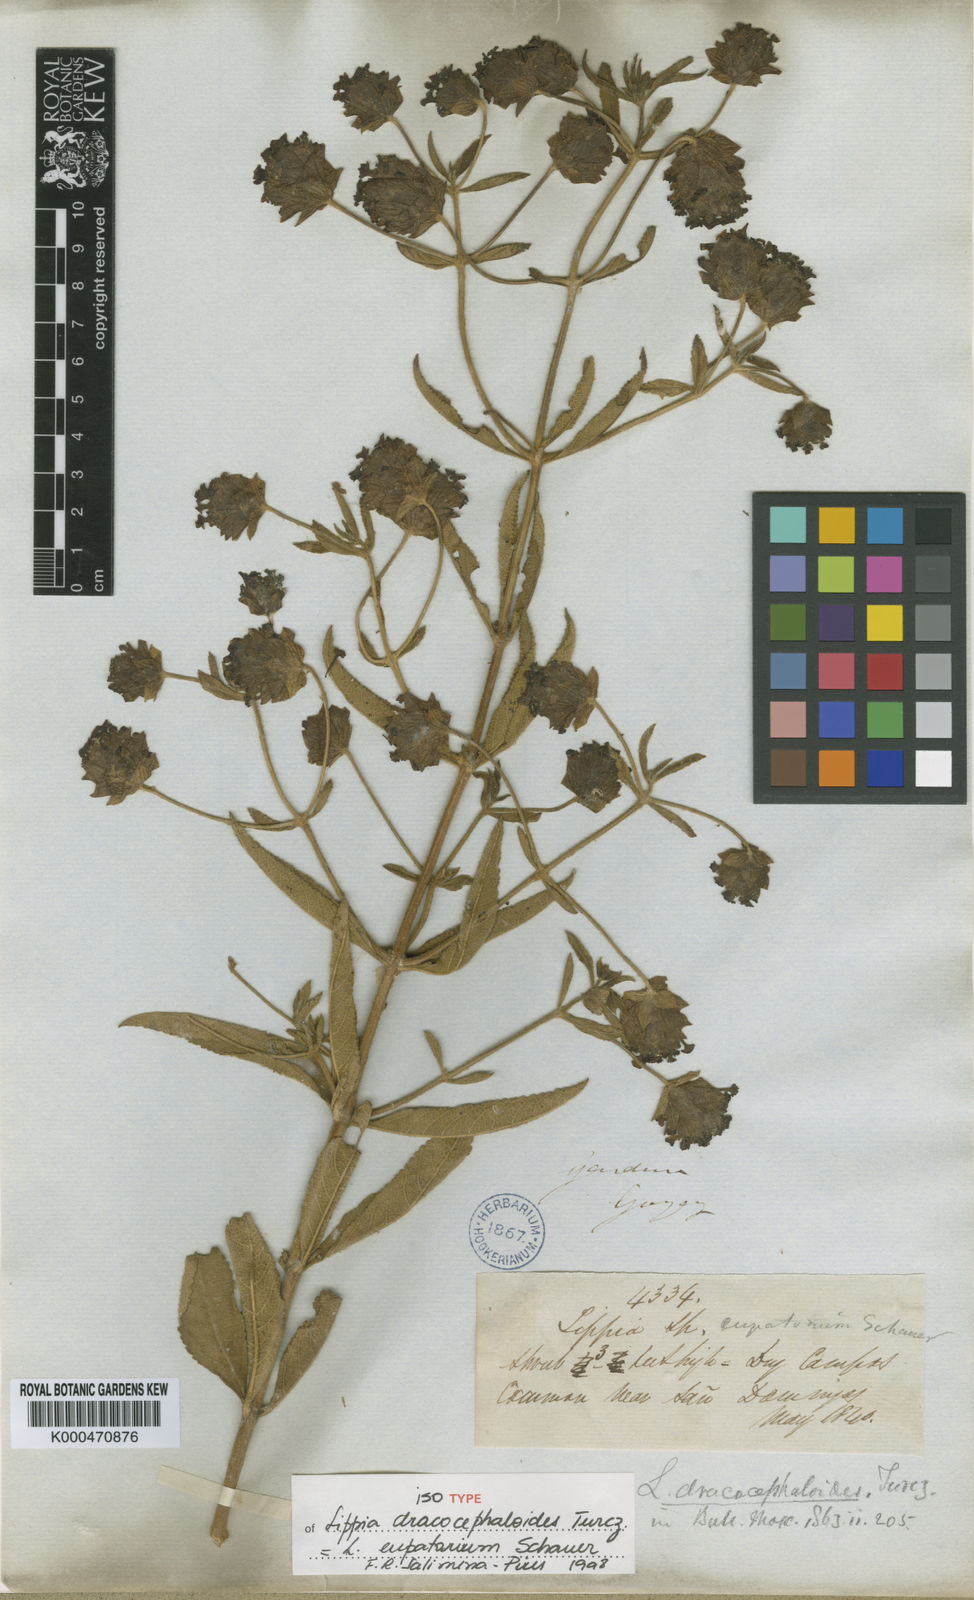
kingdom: Plantae
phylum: Tracheophyta
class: Magnoliopsida
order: Lamiales
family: Verbenaceae
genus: Lippia
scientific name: Lippia eupatorium
